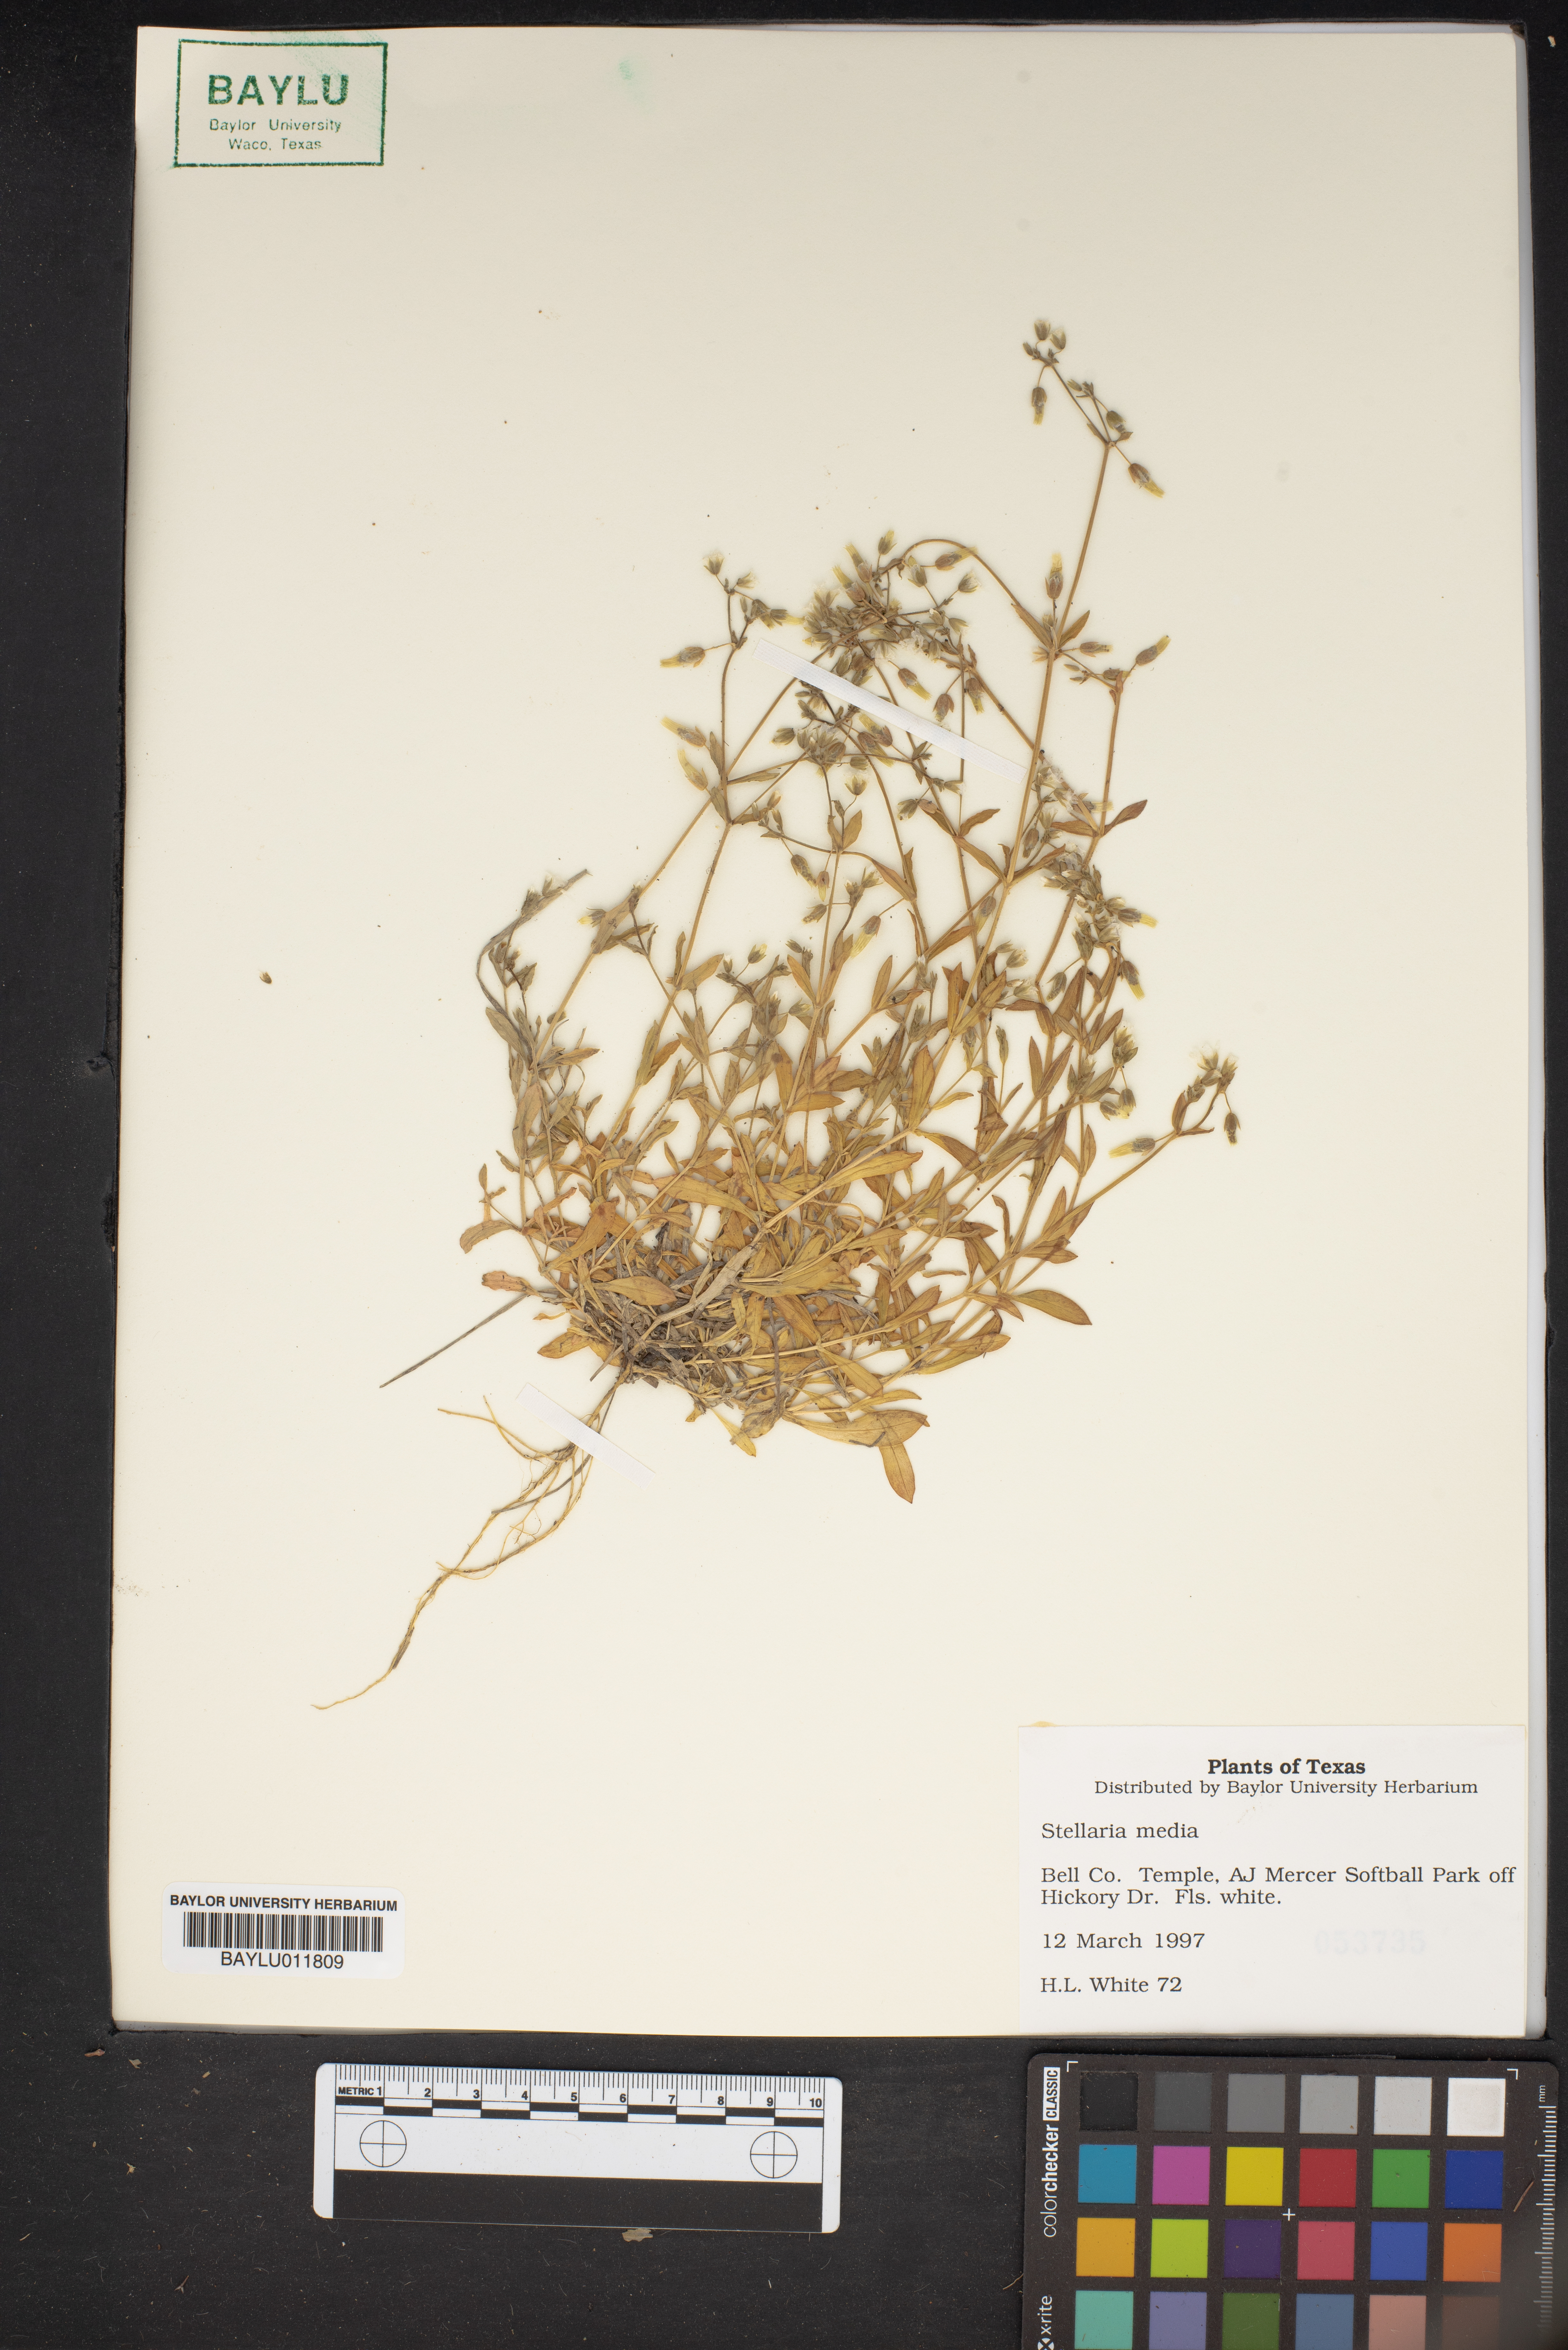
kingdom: Plantae
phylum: Tracheophyta
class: Magnoliopsida
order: Caryophyllales
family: Caryophyllaceae
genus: Stellaria
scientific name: Stellaria media
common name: Common chickweed
